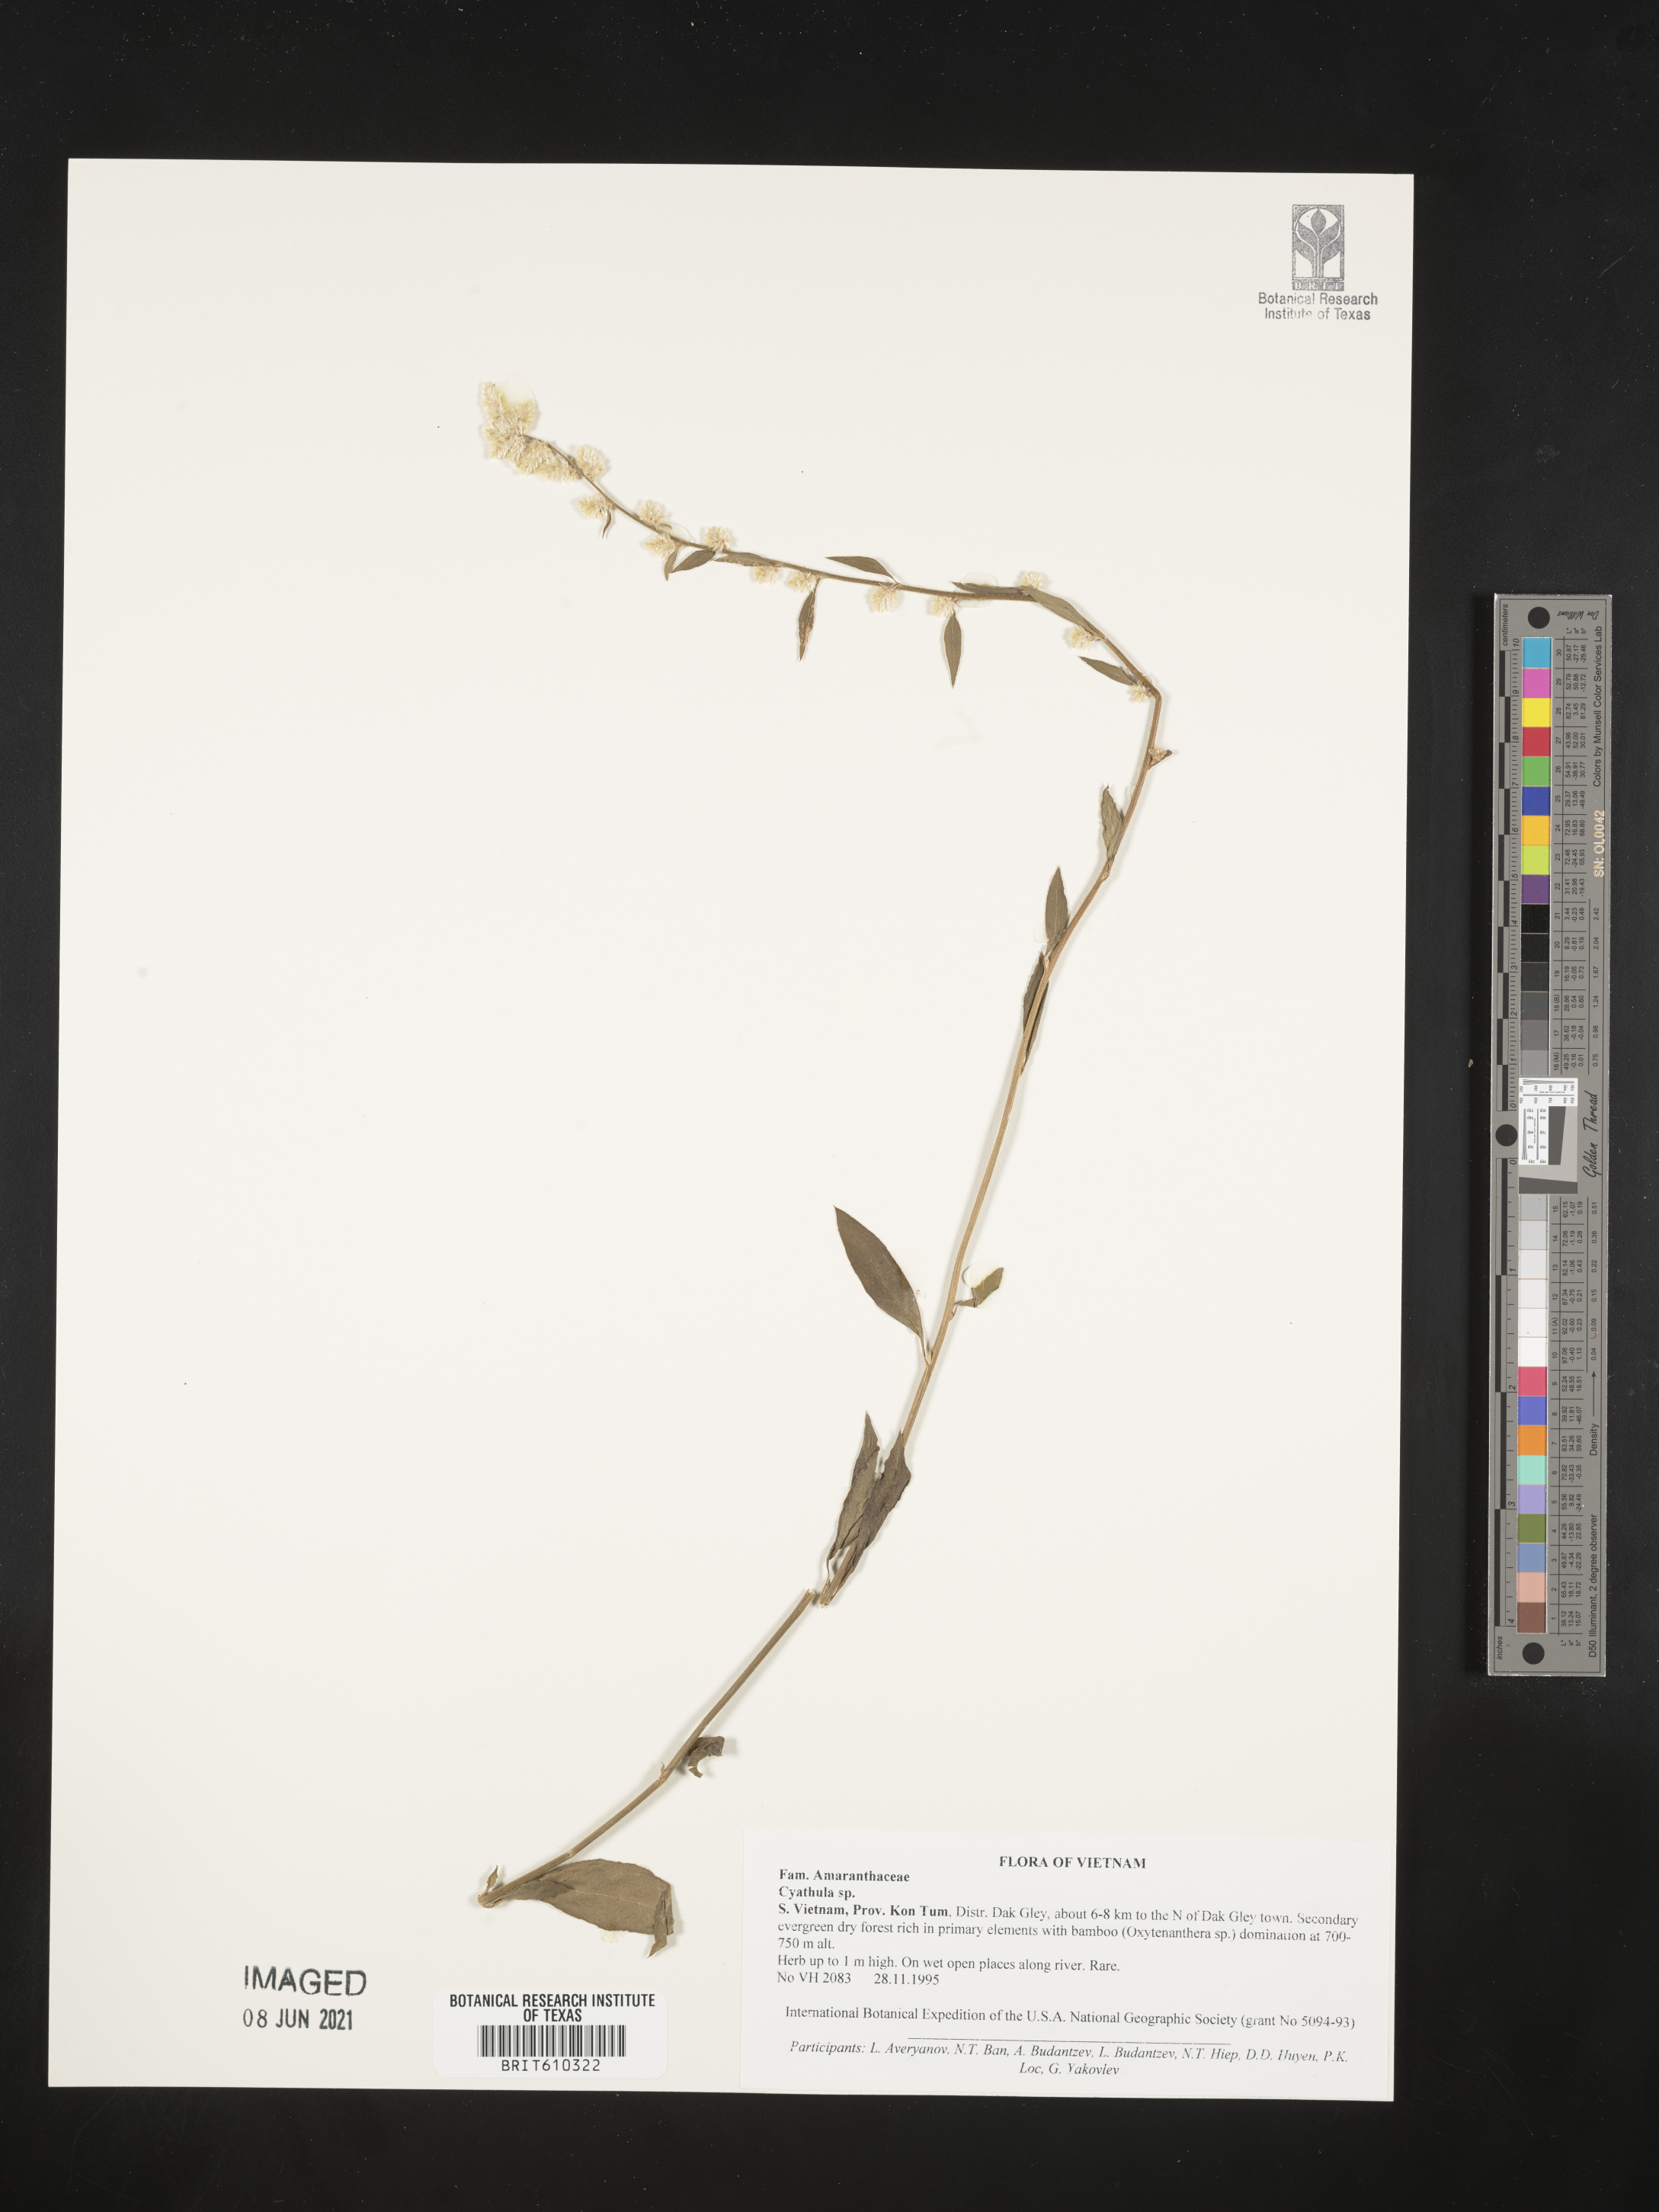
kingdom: Plantae
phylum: Tracheophyta
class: Magnoliopsida
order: Caryophyllales
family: Amaranthaceae
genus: Cyathula
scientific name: Cyathula
